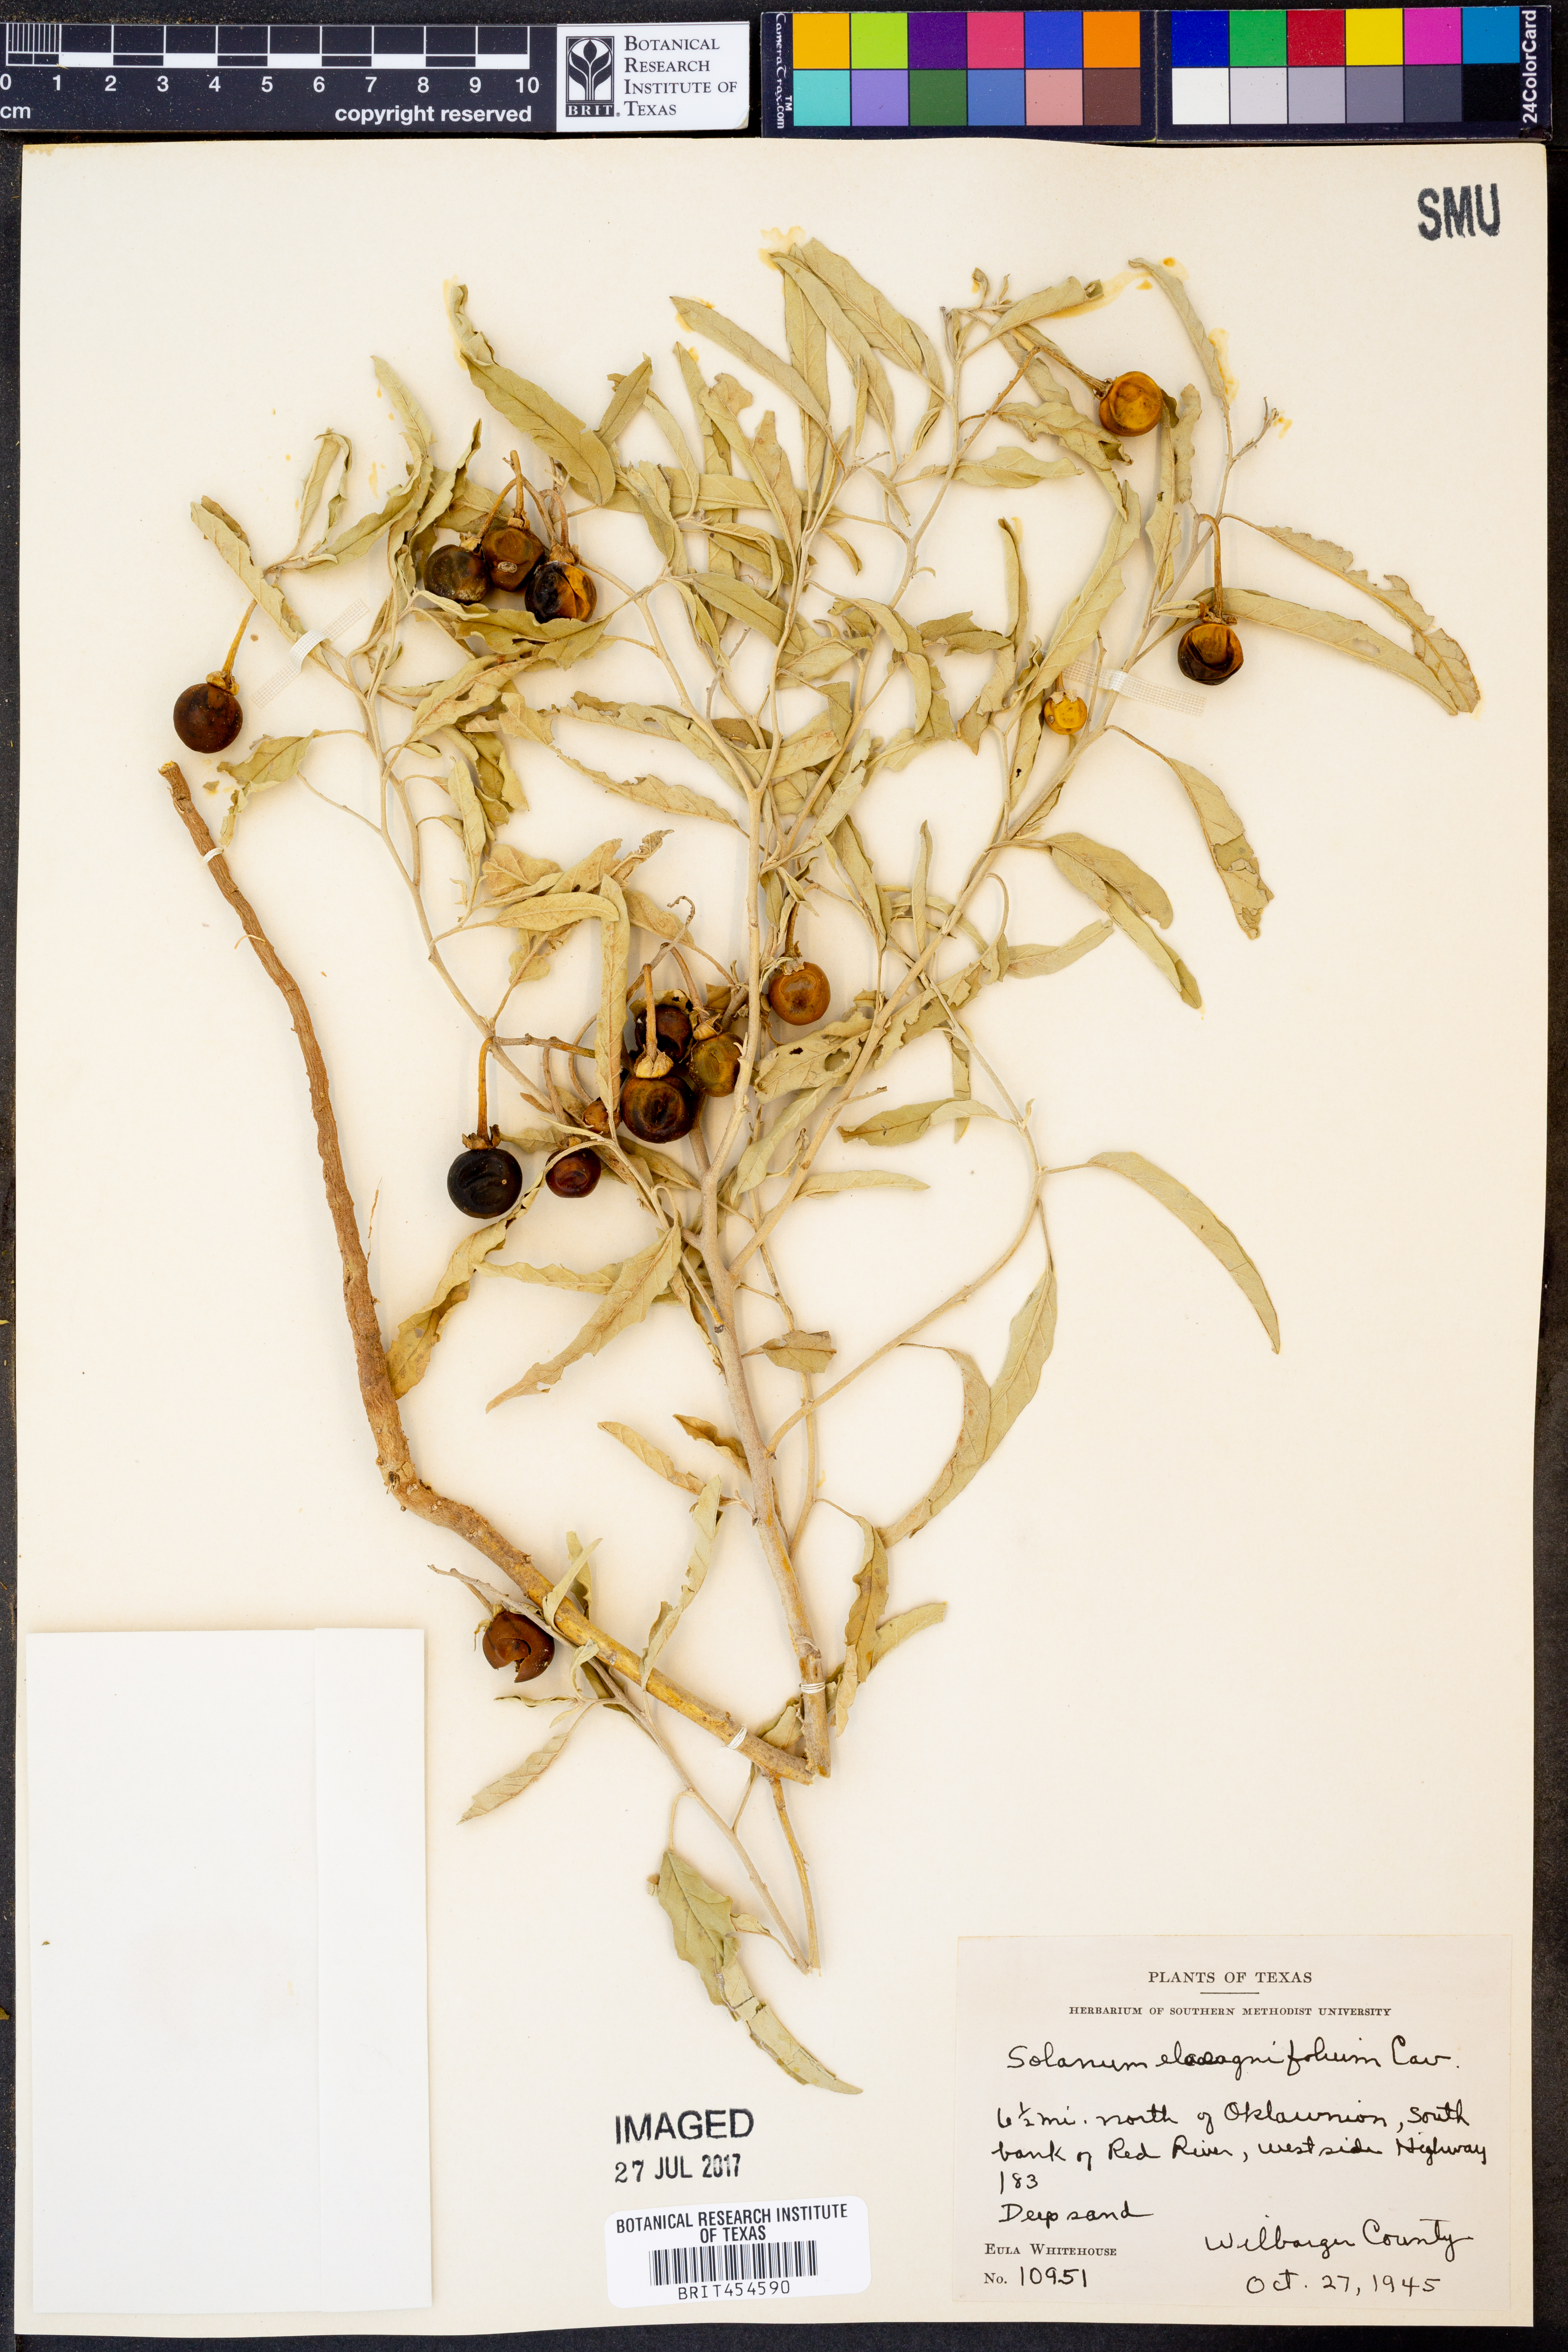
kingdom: Plantae
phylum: Tracheophyta
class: Magnoliopsida
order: Solanales
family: Solanaceae
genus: Solanum
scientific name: Solanum elaeagnifolium
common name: Silverleaf nightshade
